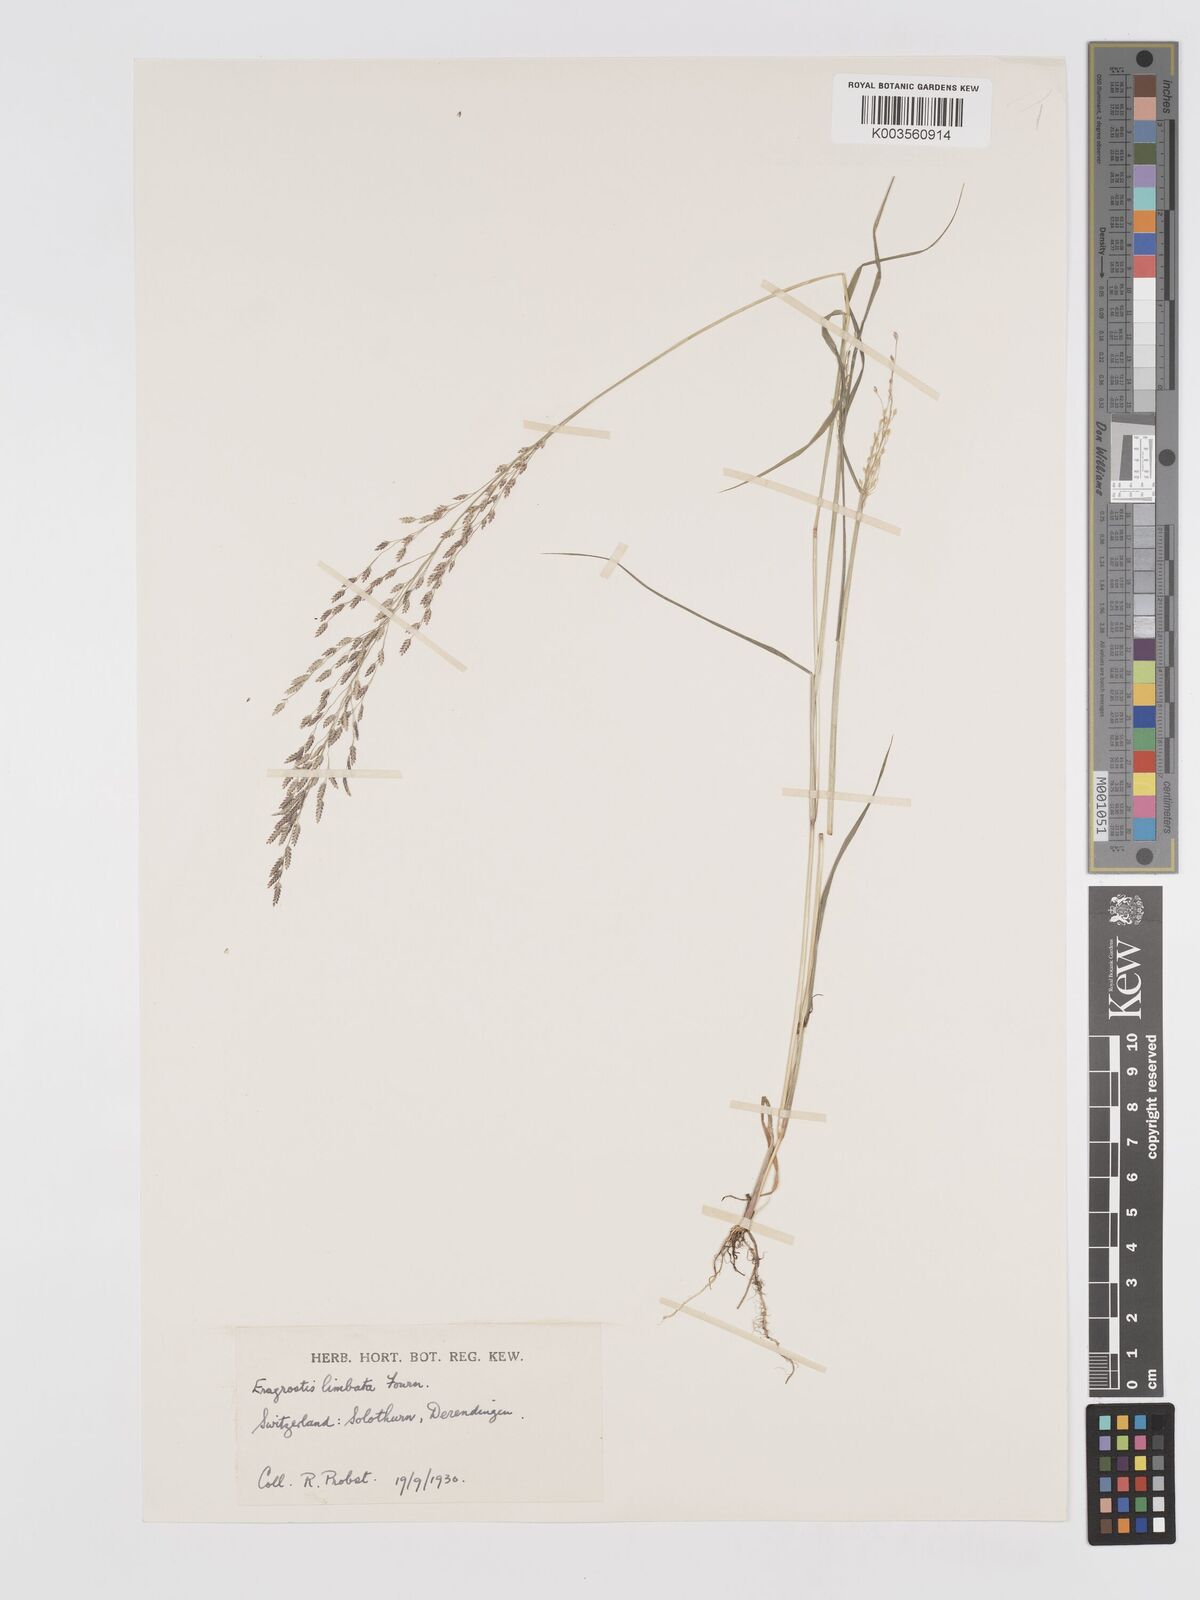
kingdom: Plantae
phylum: Tracheophyta
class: Liliopsida
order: Poales
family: Poaceae
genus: Eragrostis
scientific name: Eragrostis mexicana
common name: Mexican love grass
